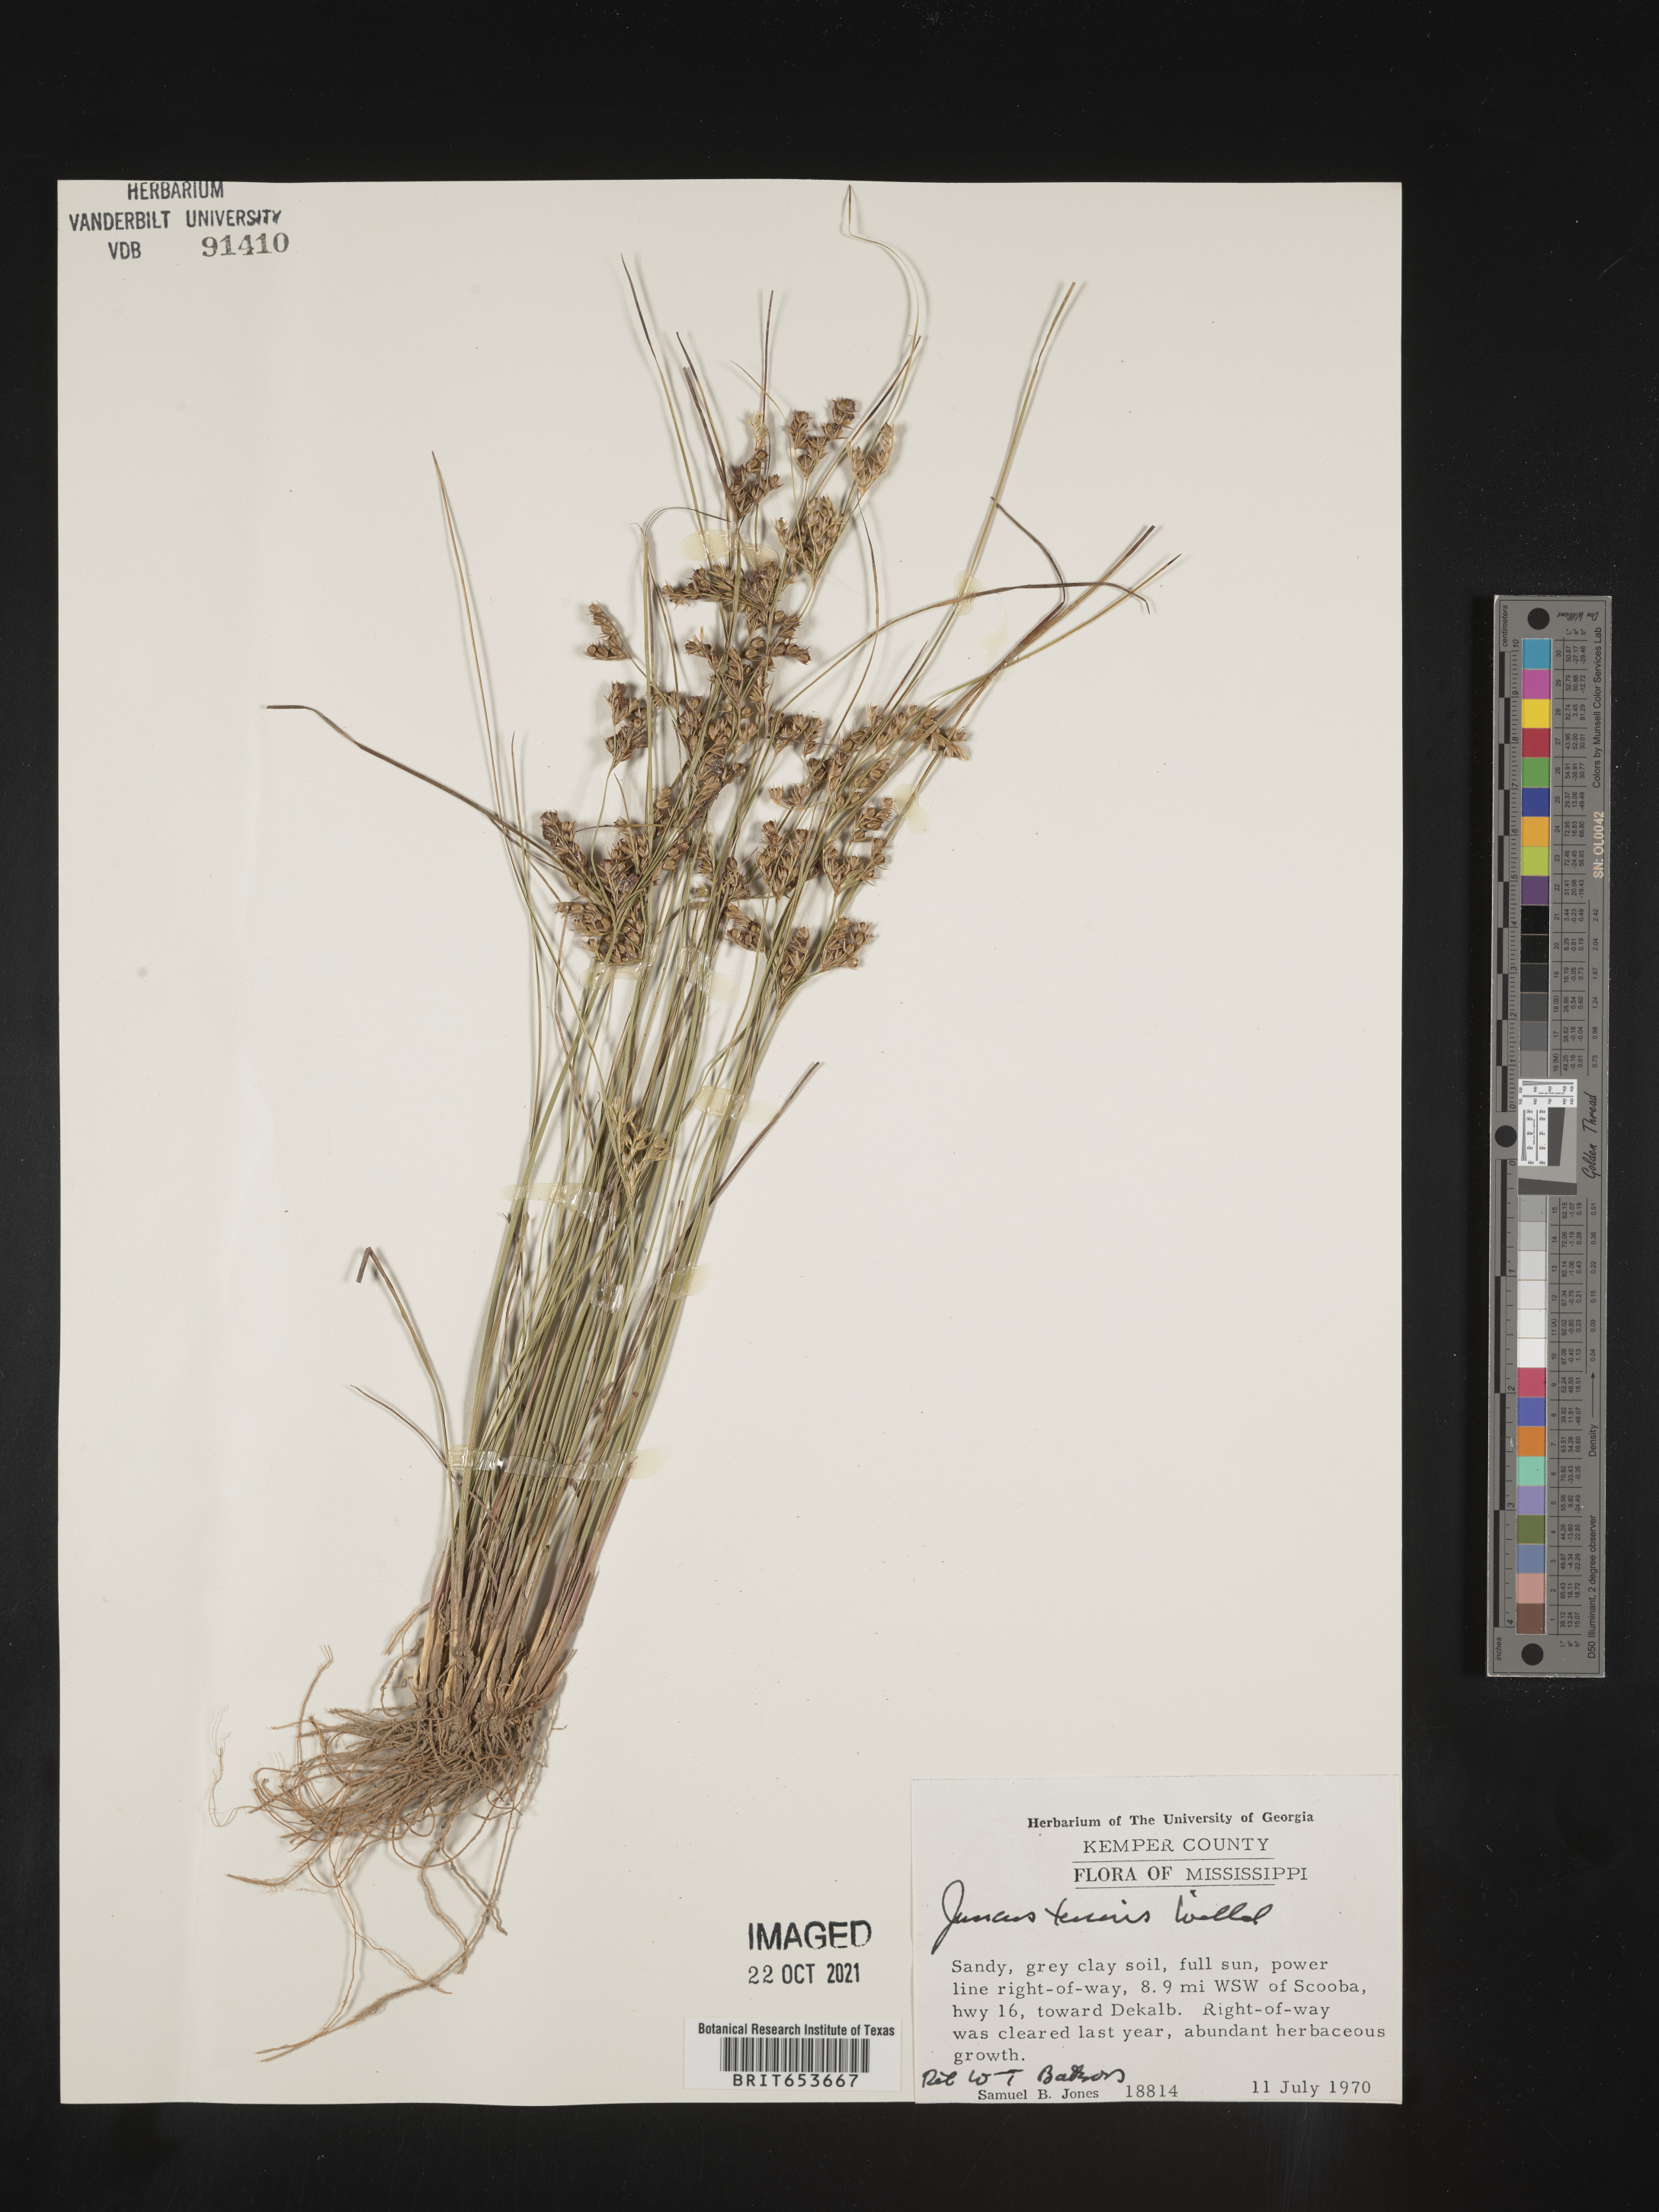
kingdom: Plantae
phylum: Tracheophyta
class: Liliopsida
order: Poales
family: Juncaceae
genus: Juncus
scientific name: Juncus tenuis
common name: Slender rush
